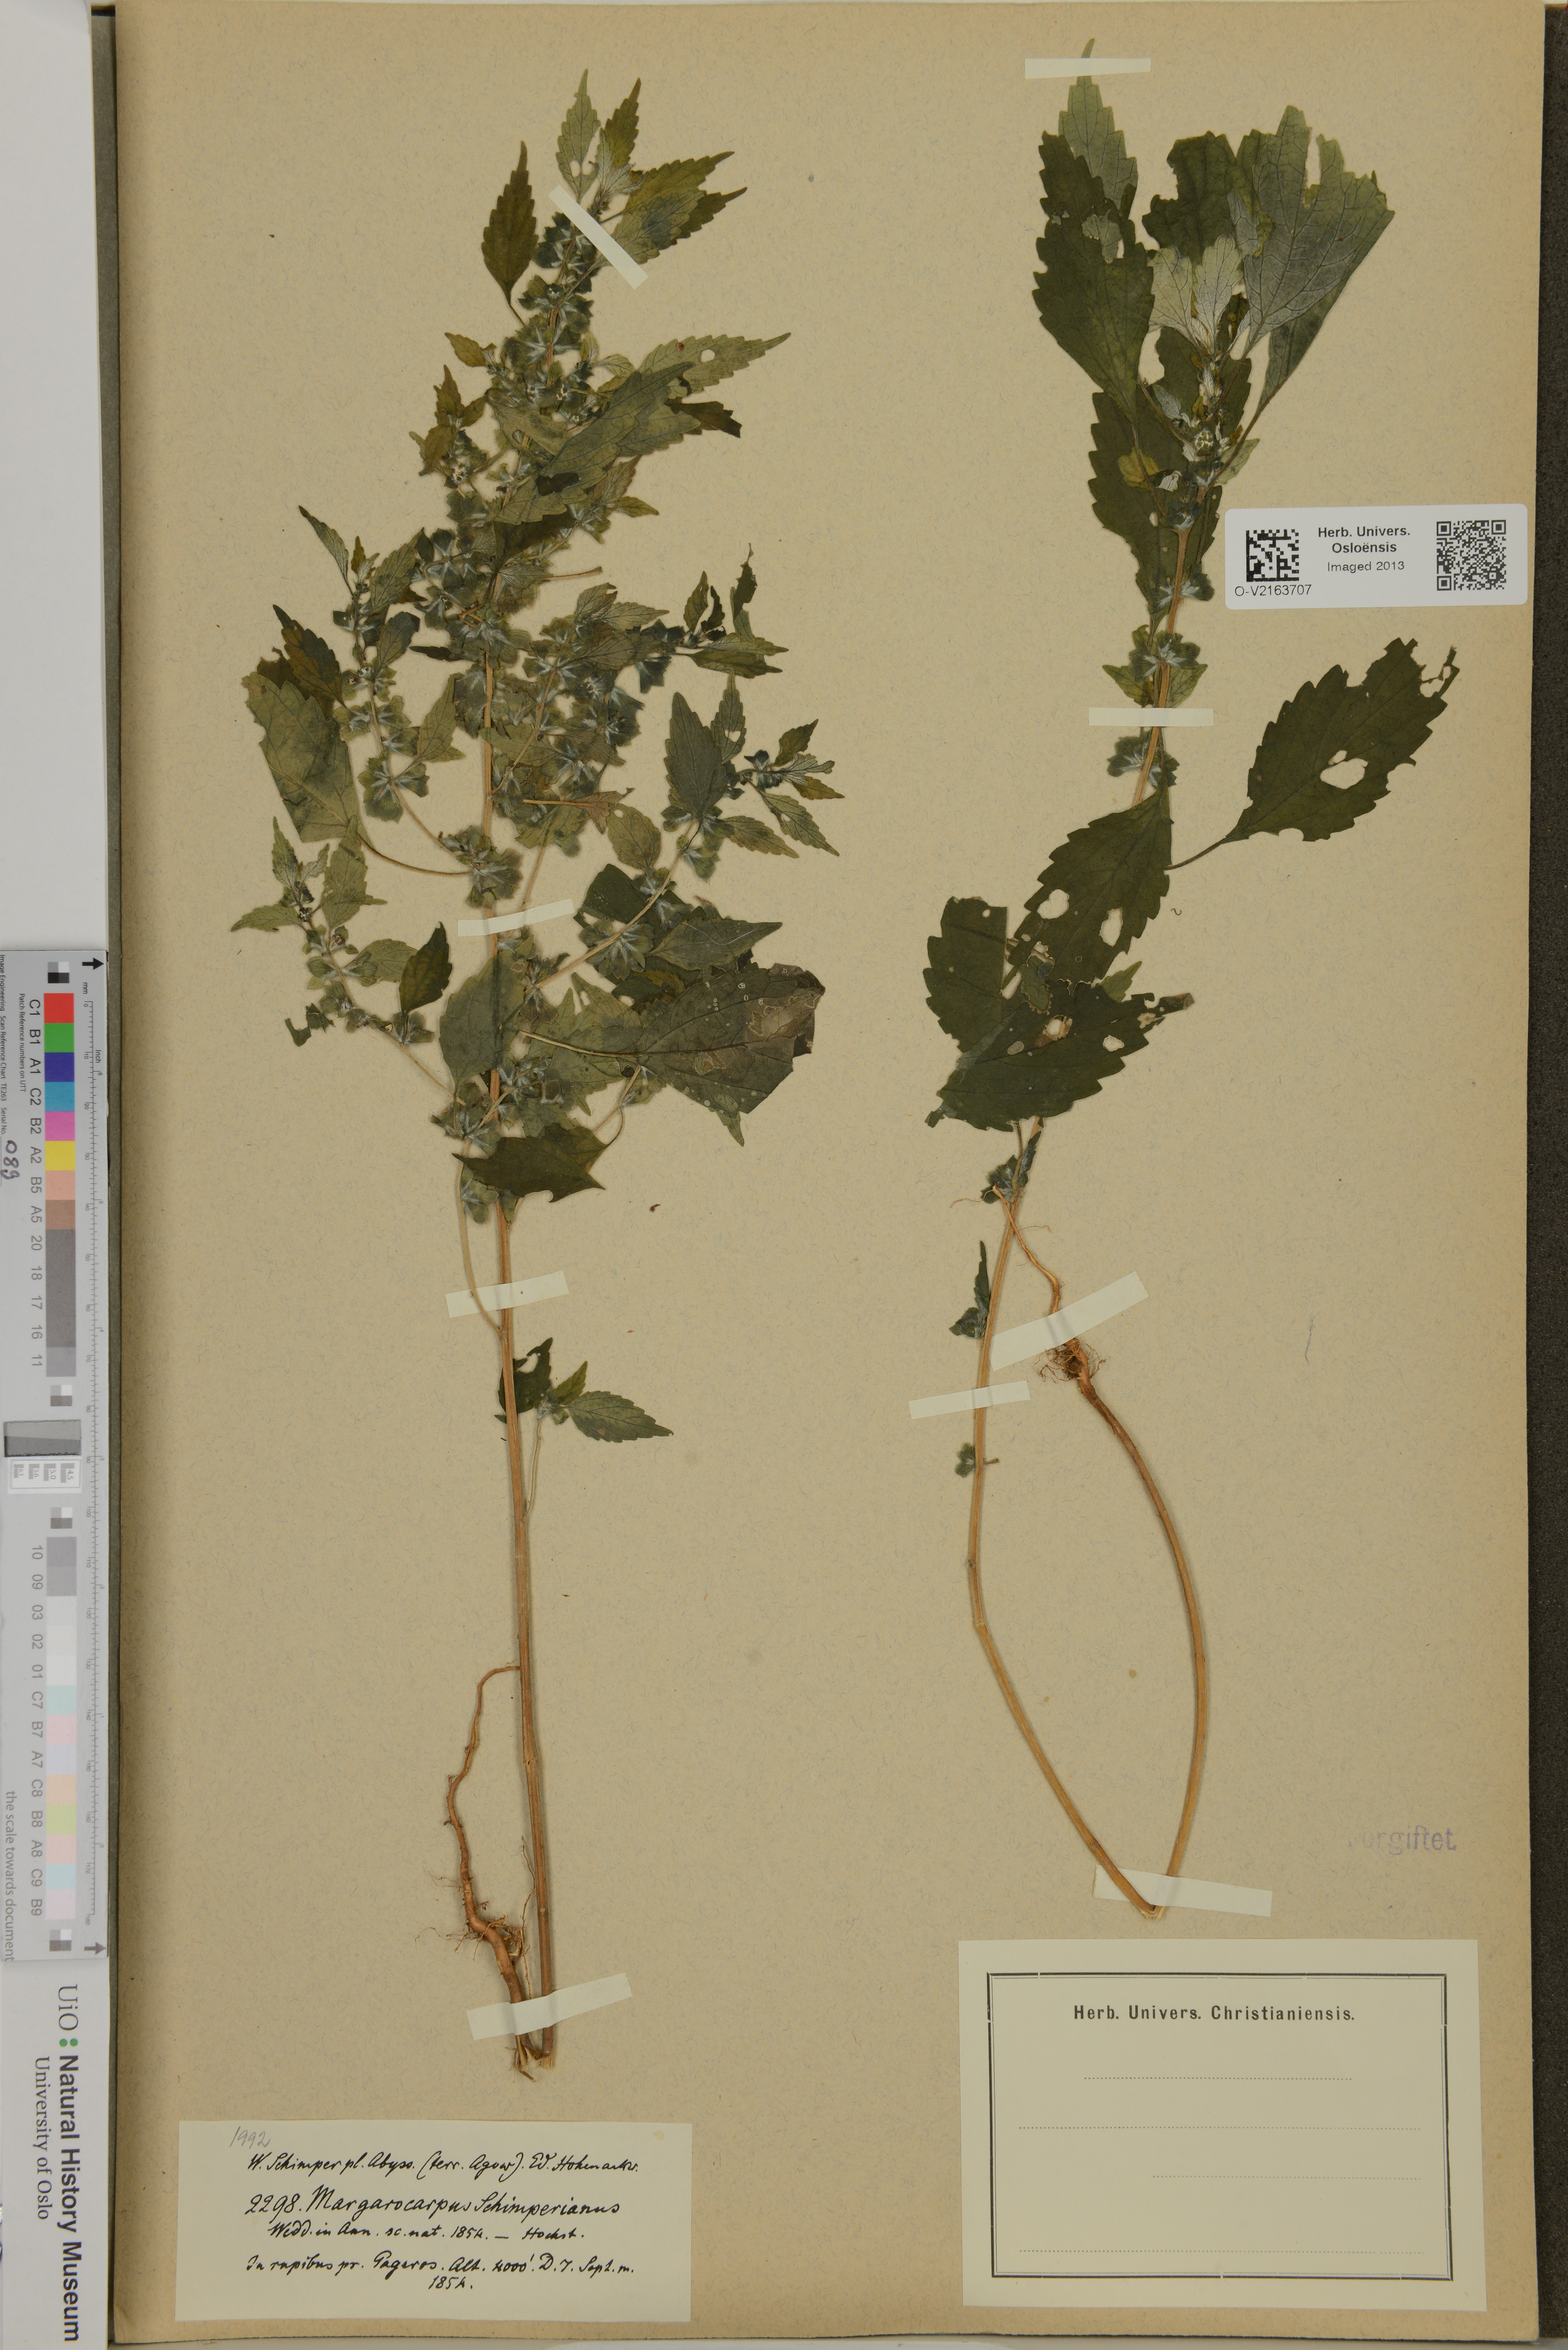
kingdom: Plantae
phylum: Tracheophyta
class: Magnoliopsida
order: Rosales
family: Urticaceae
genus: Pouzolzia
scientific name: Pouzolzia guineensis
